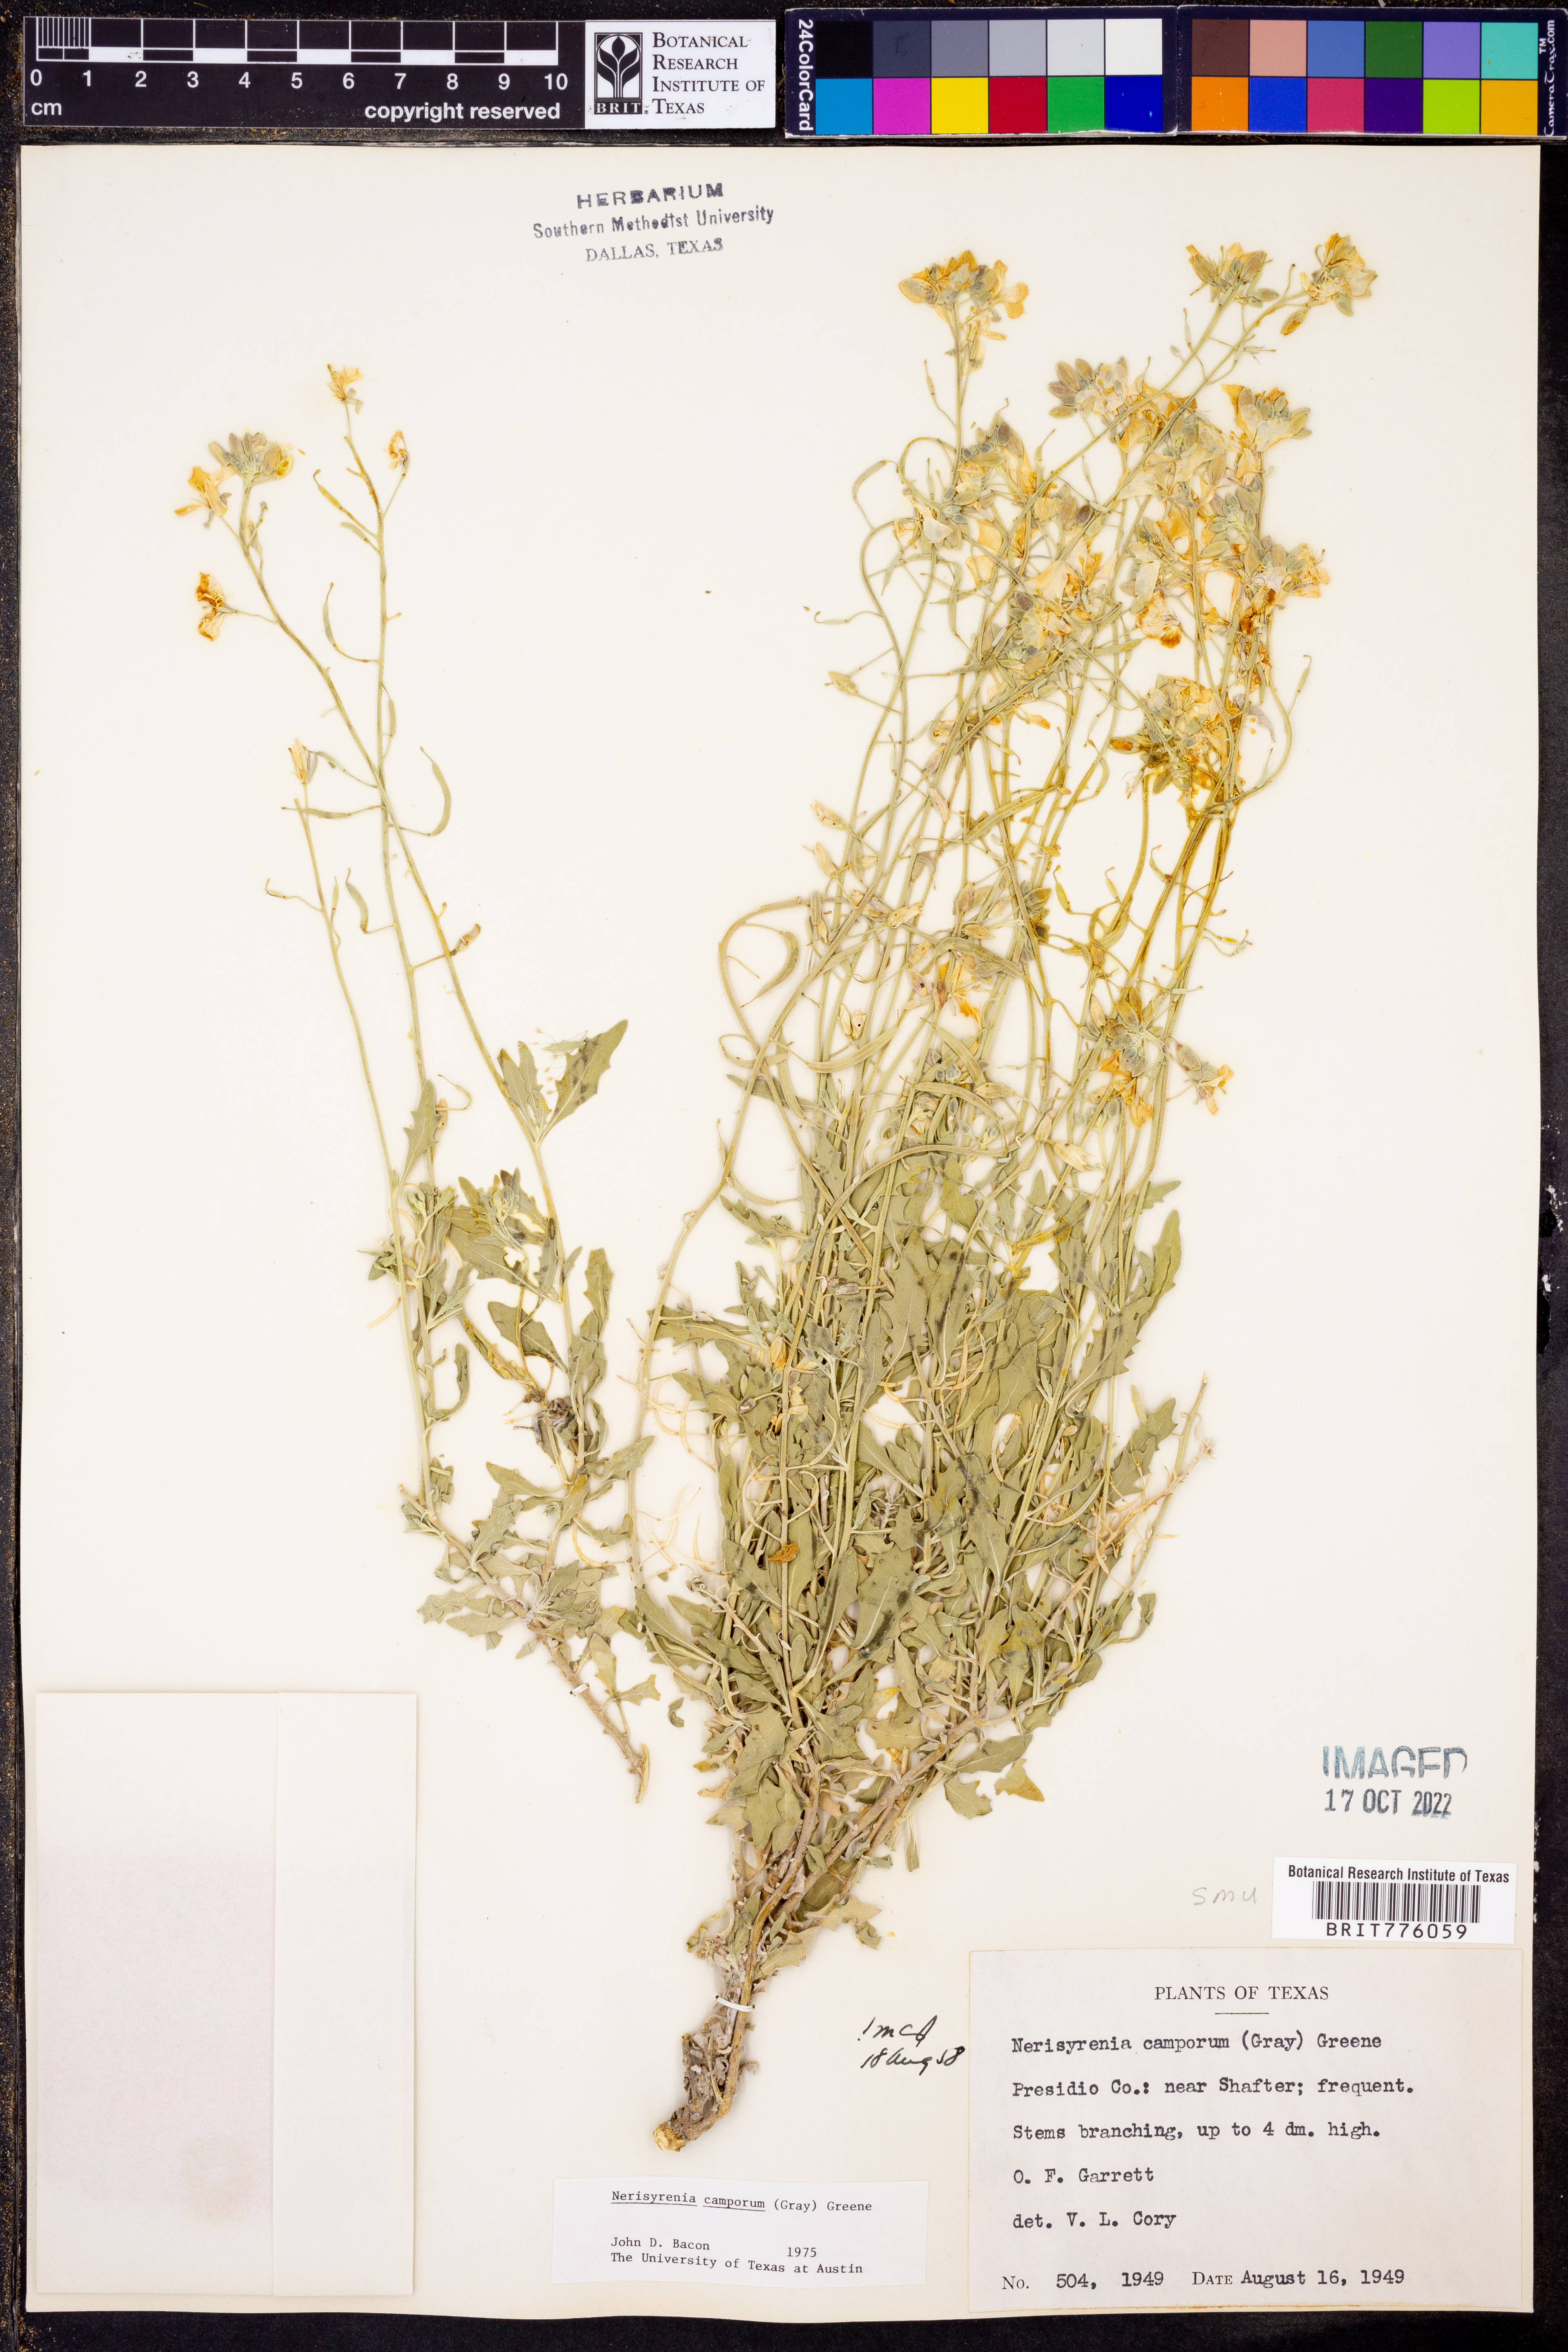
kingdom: Plantae
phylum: Tracheophyta
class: Magnoliopsida
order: Brassicales
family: Brassicaceae
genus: Nerisyrenia
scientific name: Nerisyrenia camporum
